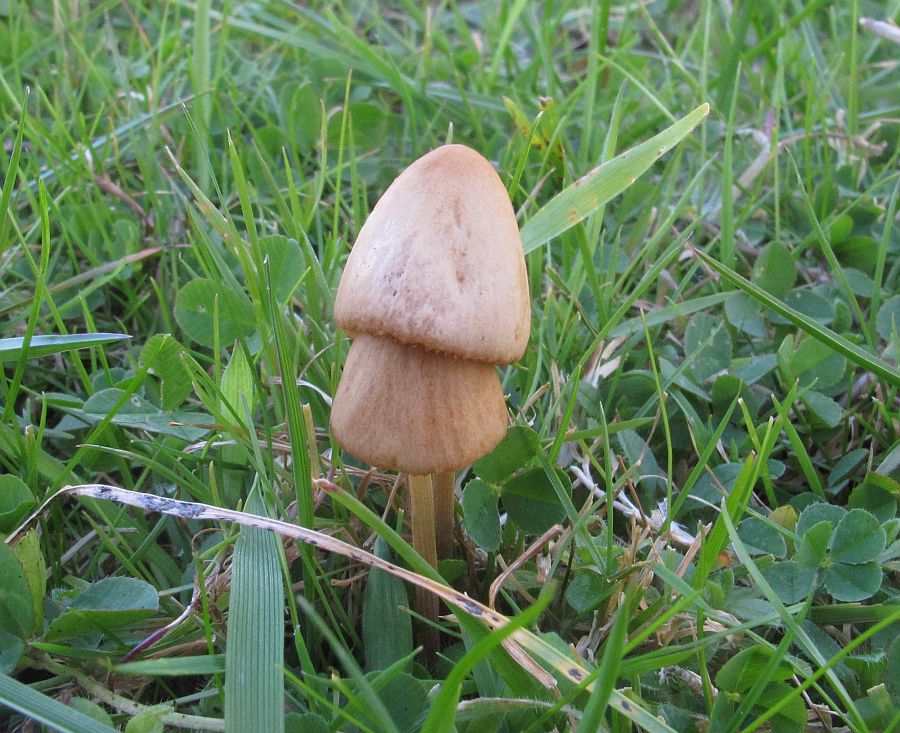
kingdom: Fungi
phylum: Basidiomycota
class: Agaricomycetes
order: Agaricales
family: Bolbitiaceae
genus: Conocybe
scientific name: Conocybe subovalis
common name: hvælvet keglehat
